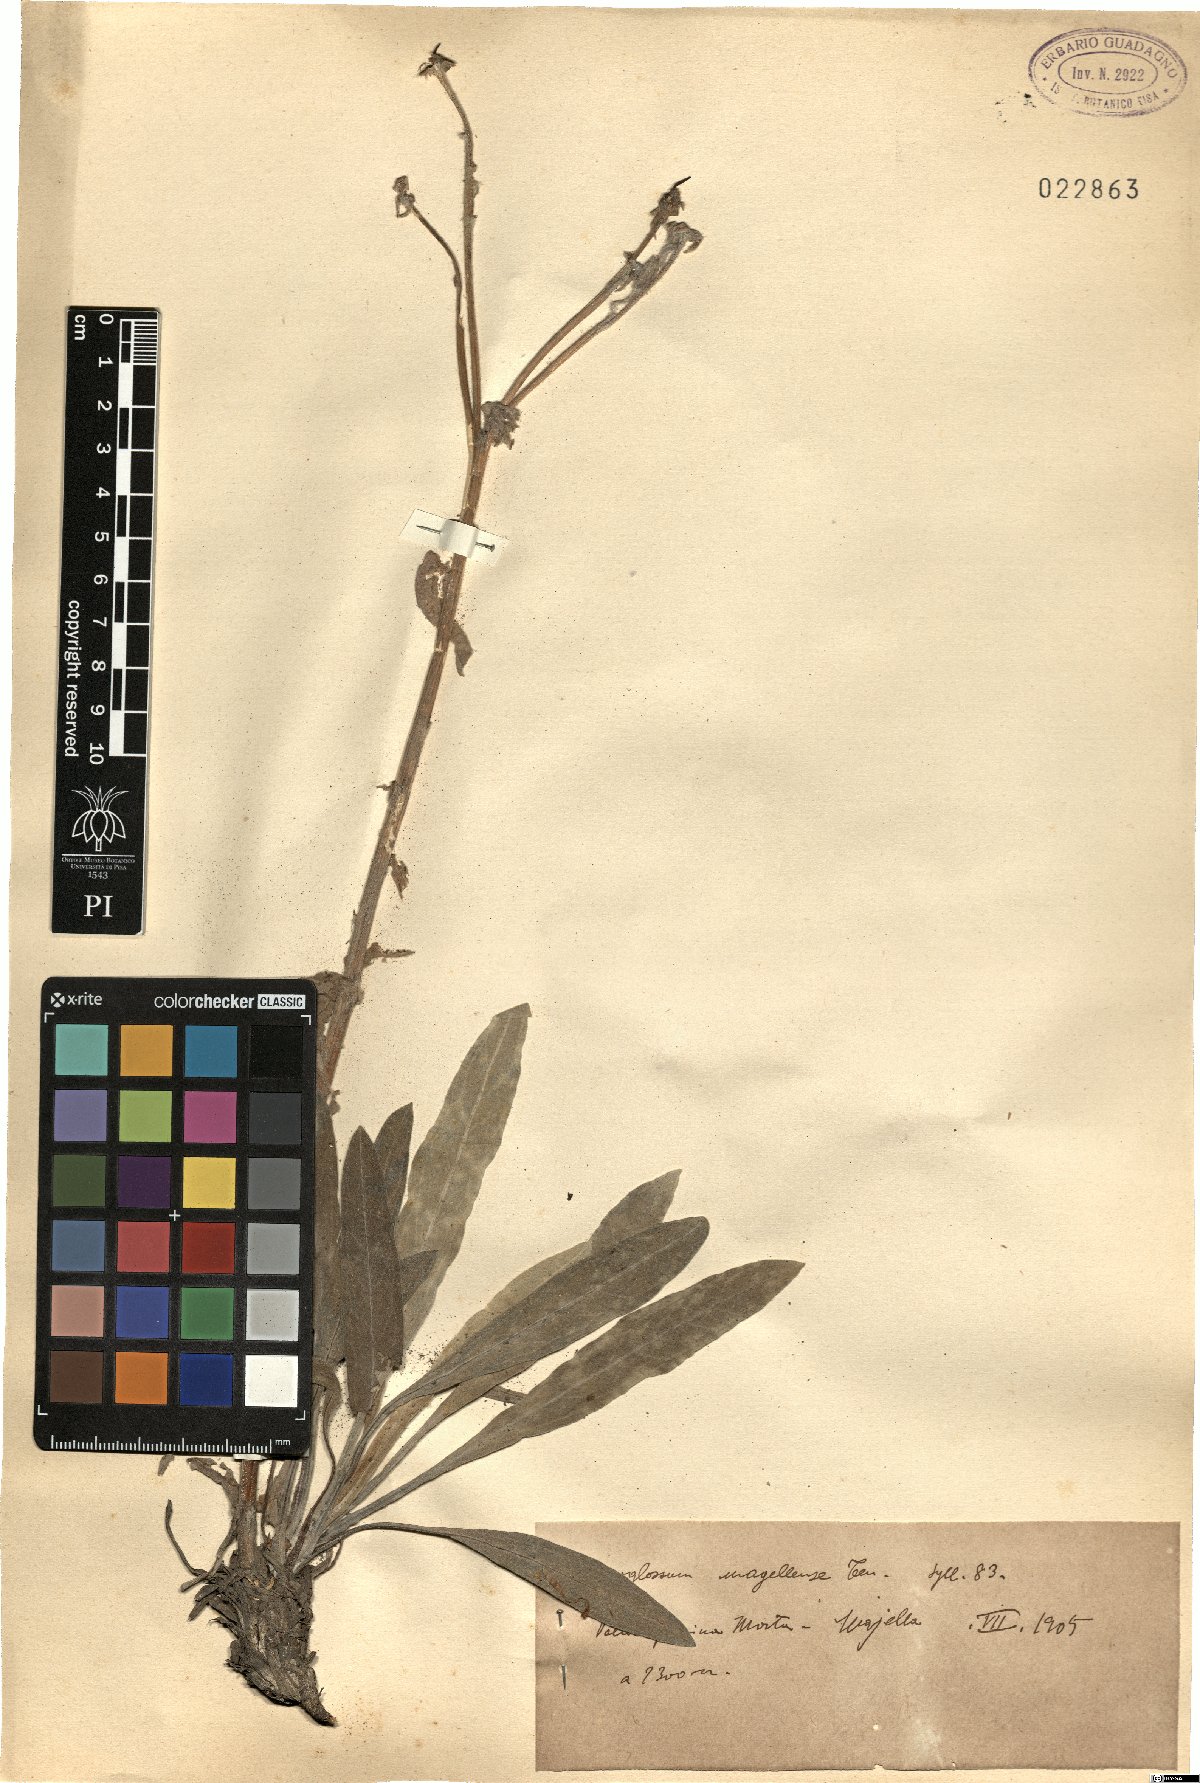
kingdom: Plantae
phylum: Tracheophyta
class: Magnoliopsida
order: Boraginales
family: Boraginaceae
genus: Rindera
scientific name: Rindera magellensis
